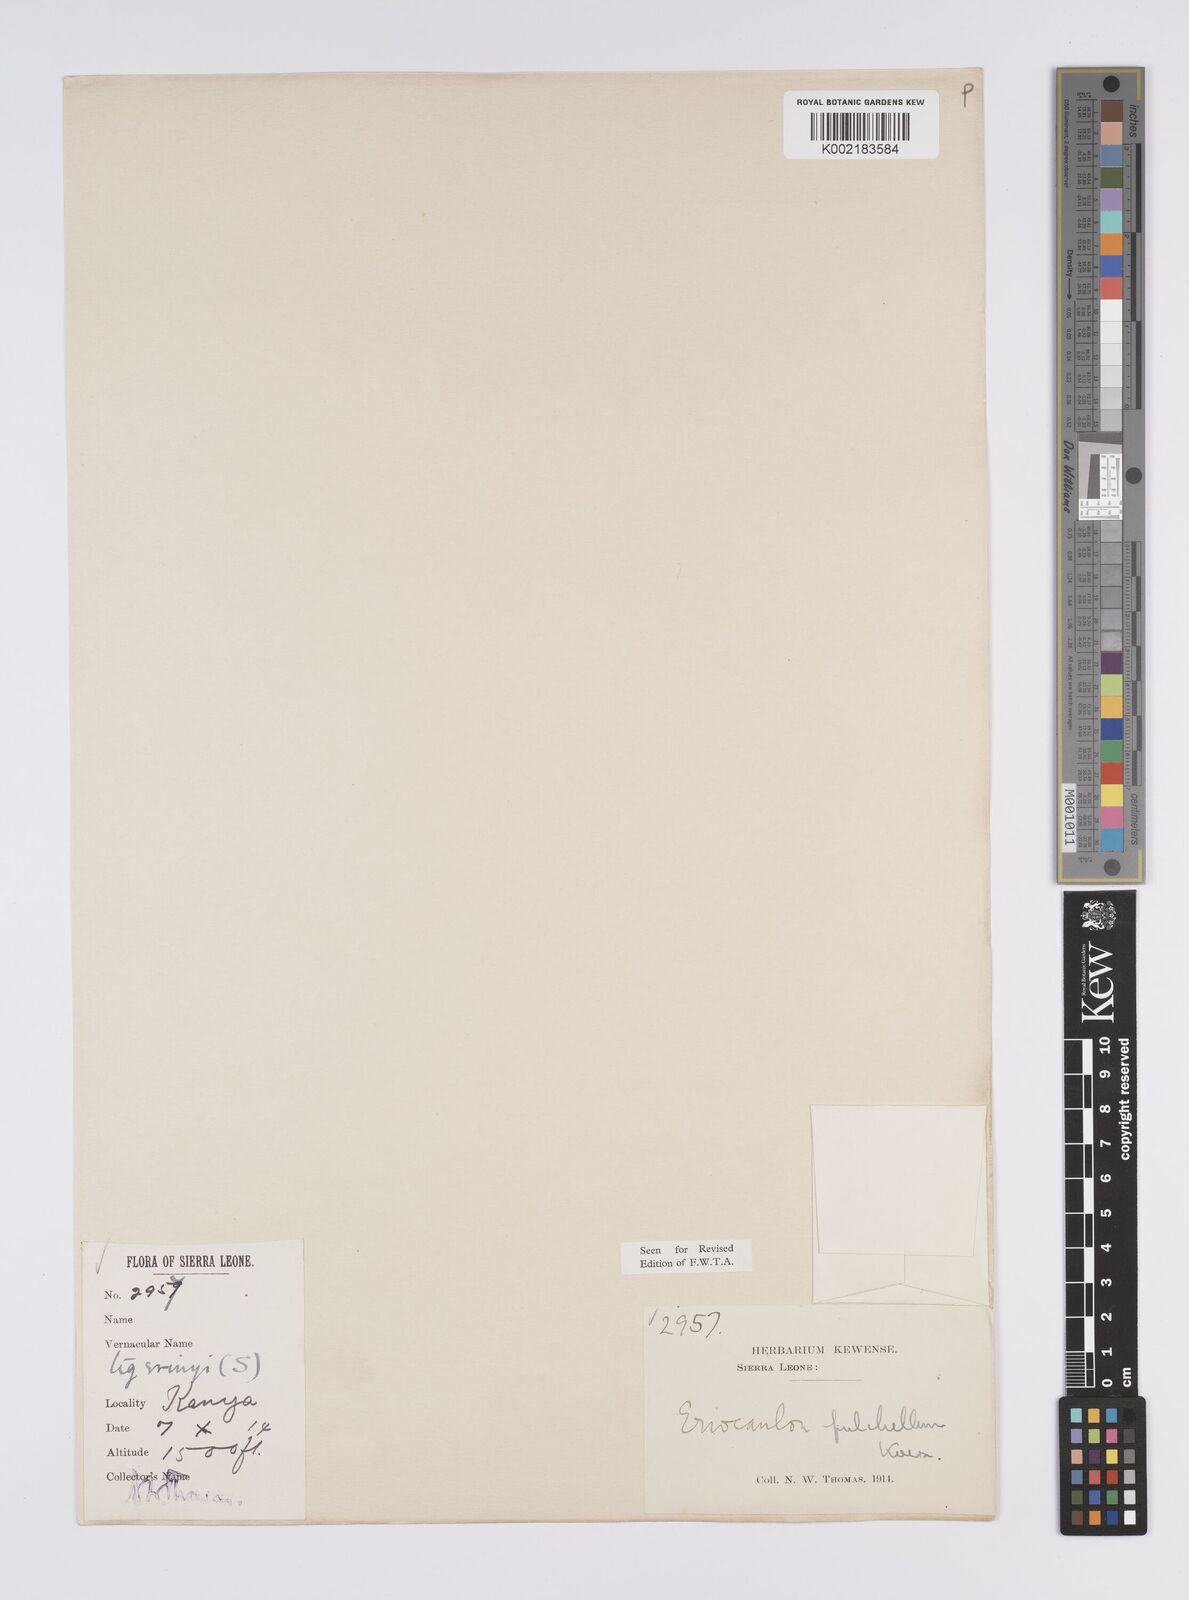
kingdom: Plantae
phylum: Tracheophyta
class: Liliopsida
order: Poales
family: Eriocaulaceae
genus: Eriocaulon
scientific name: Eriocaulon pulchellum
